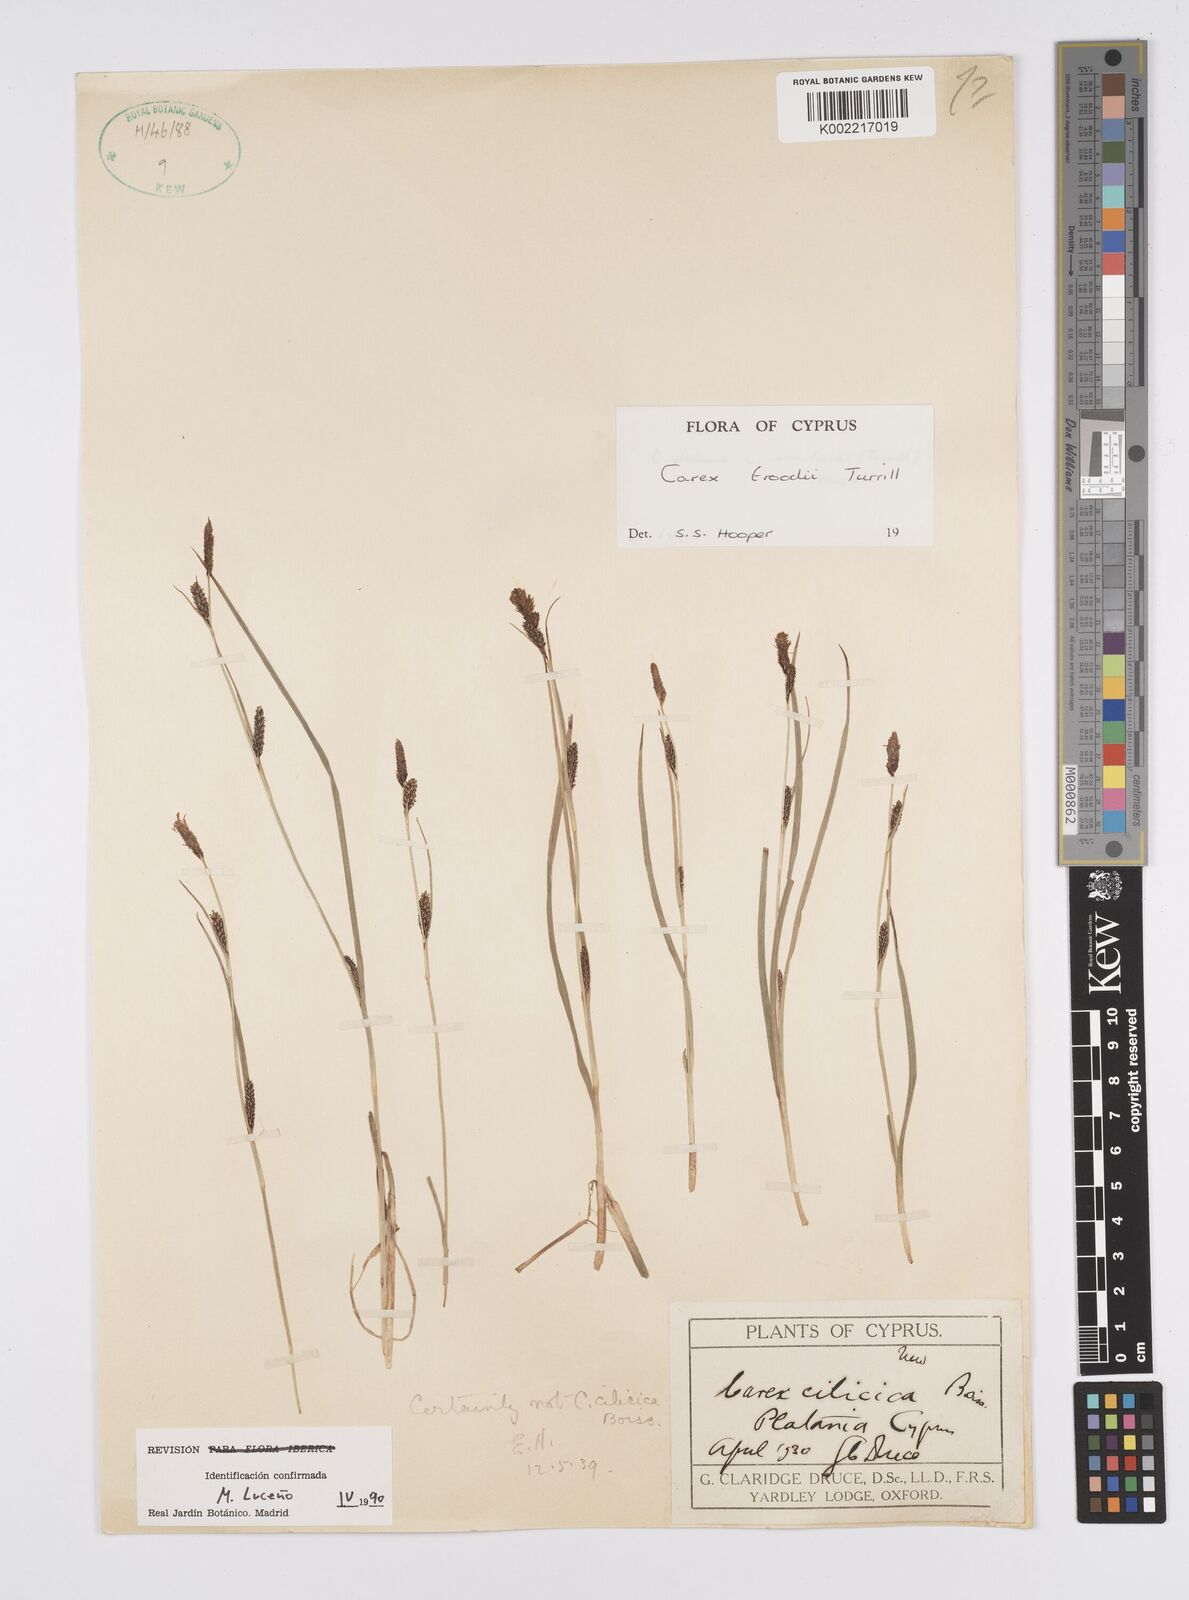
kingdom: Plantae
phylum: Tracheophyta
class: Liliopsida
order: Poales
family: Cyperaceae
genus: Carex
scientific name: Carex troodi
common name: Troodos mount sedge
